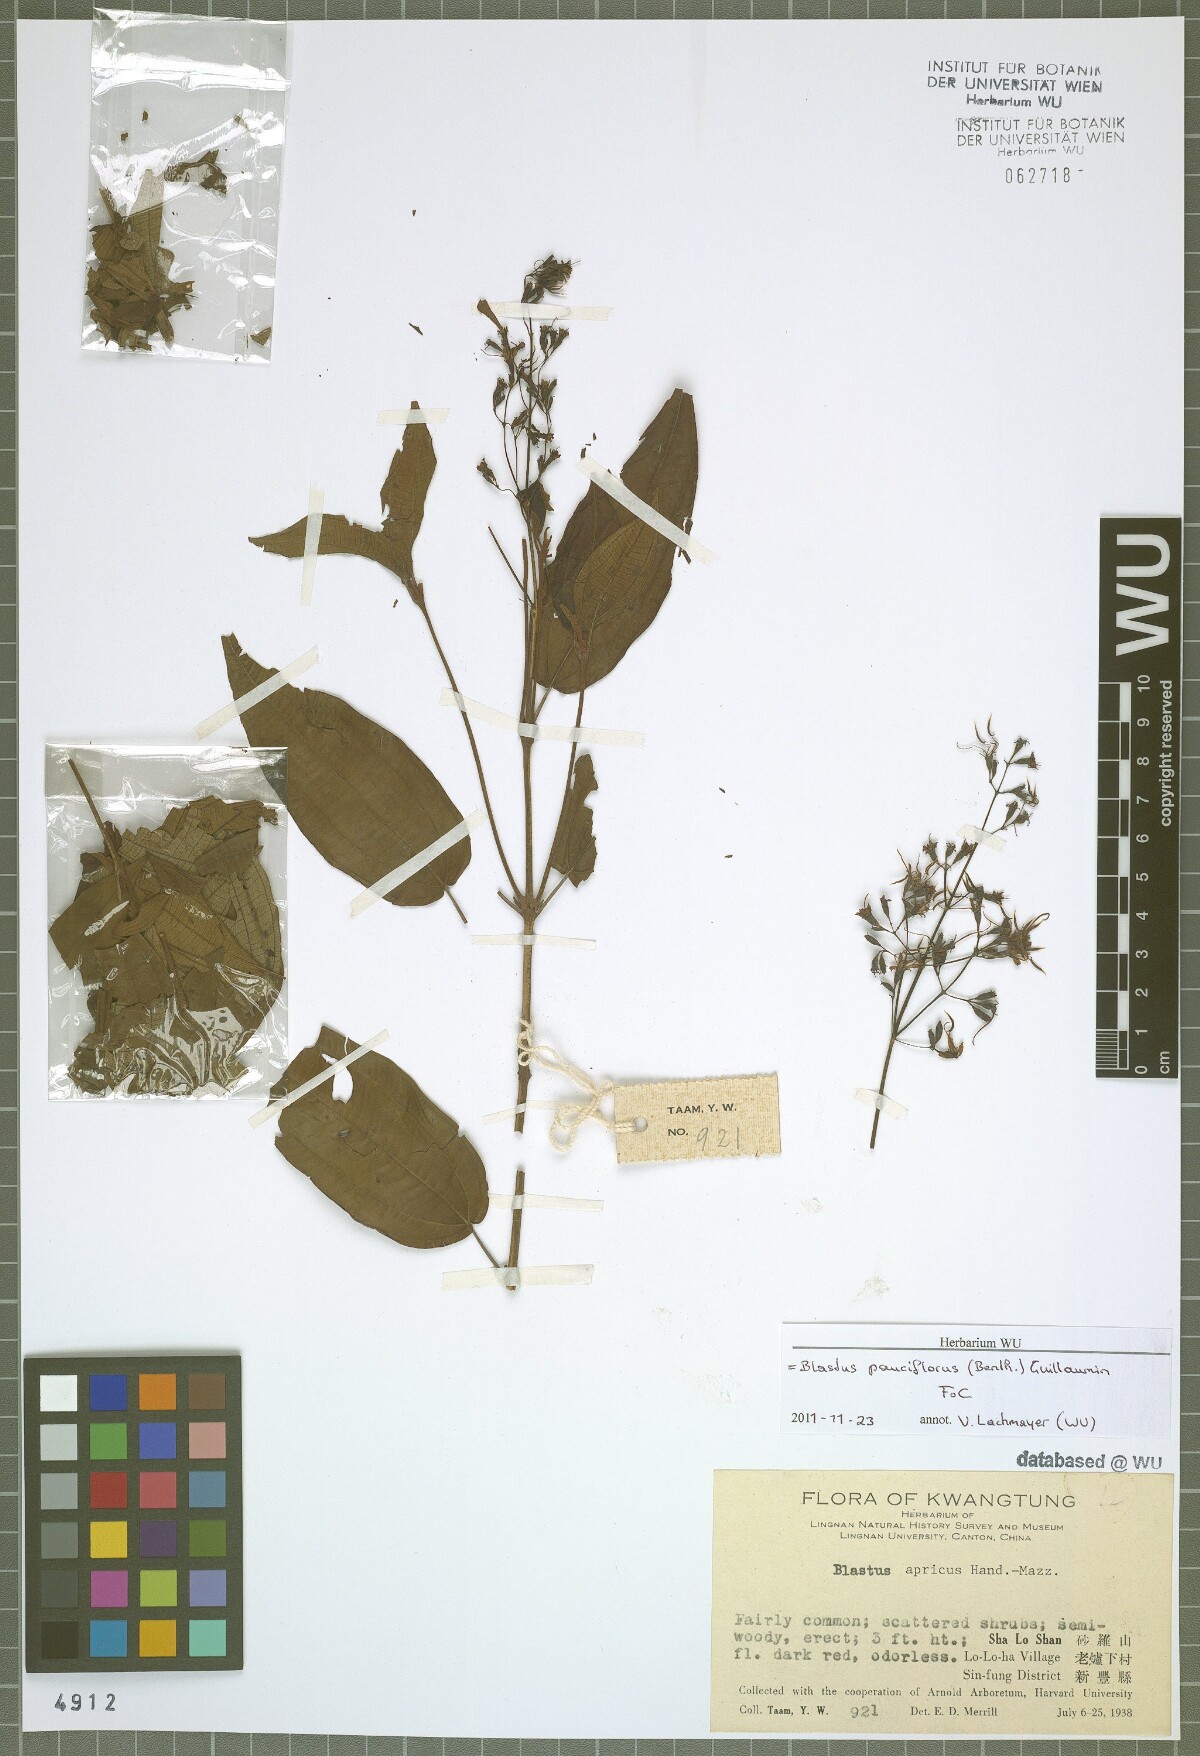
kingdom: Plantae
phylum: Tracheophyta
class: Magnoliopsida
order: Myrtales
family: Melastomataceae
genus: Blastus
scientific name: Blastus pauciflorus
